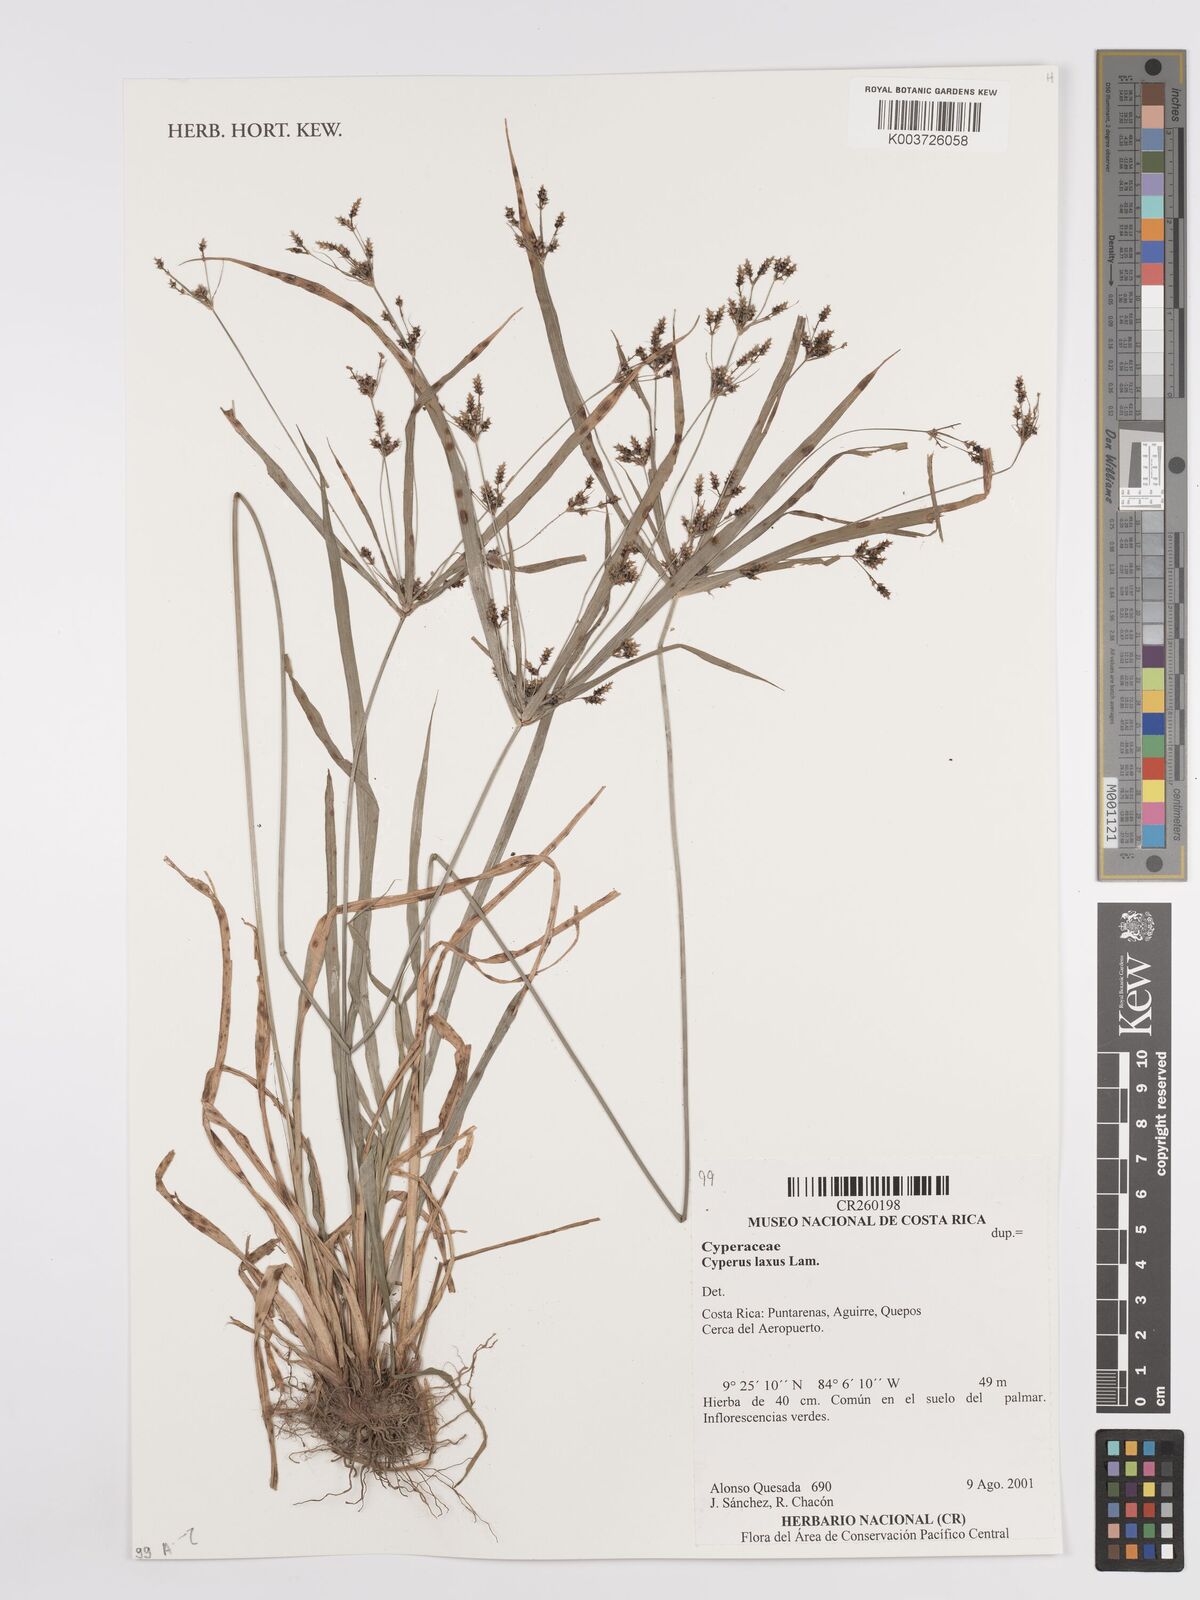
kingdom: Plantae
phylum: Tracheophyta
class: Liliopsida
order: Poales
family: Cyperaceae
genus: Cyperus
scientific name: Cyperus laxus
